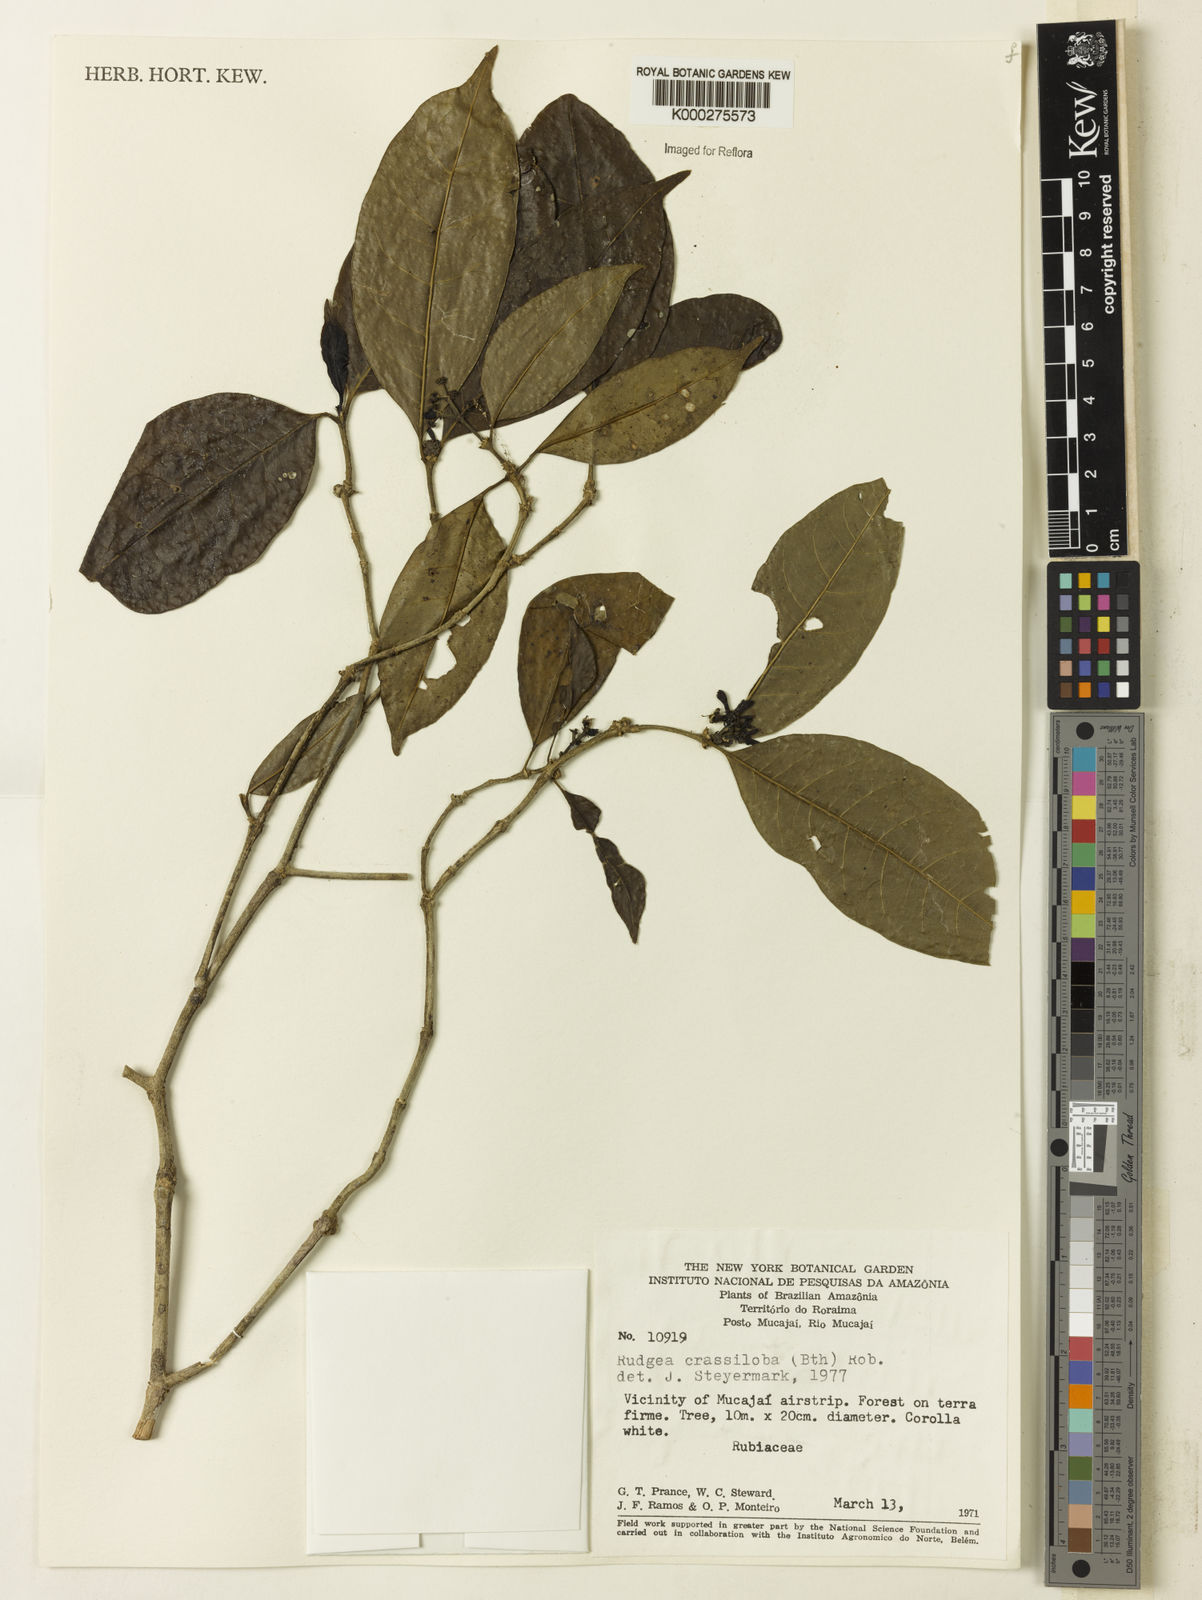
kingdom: Plantae
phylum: Tracheophyta
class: Magnoliopsida
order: Gentianales
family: Rubiaceae
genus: Rudgea
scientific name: Rudgea crassiloba
